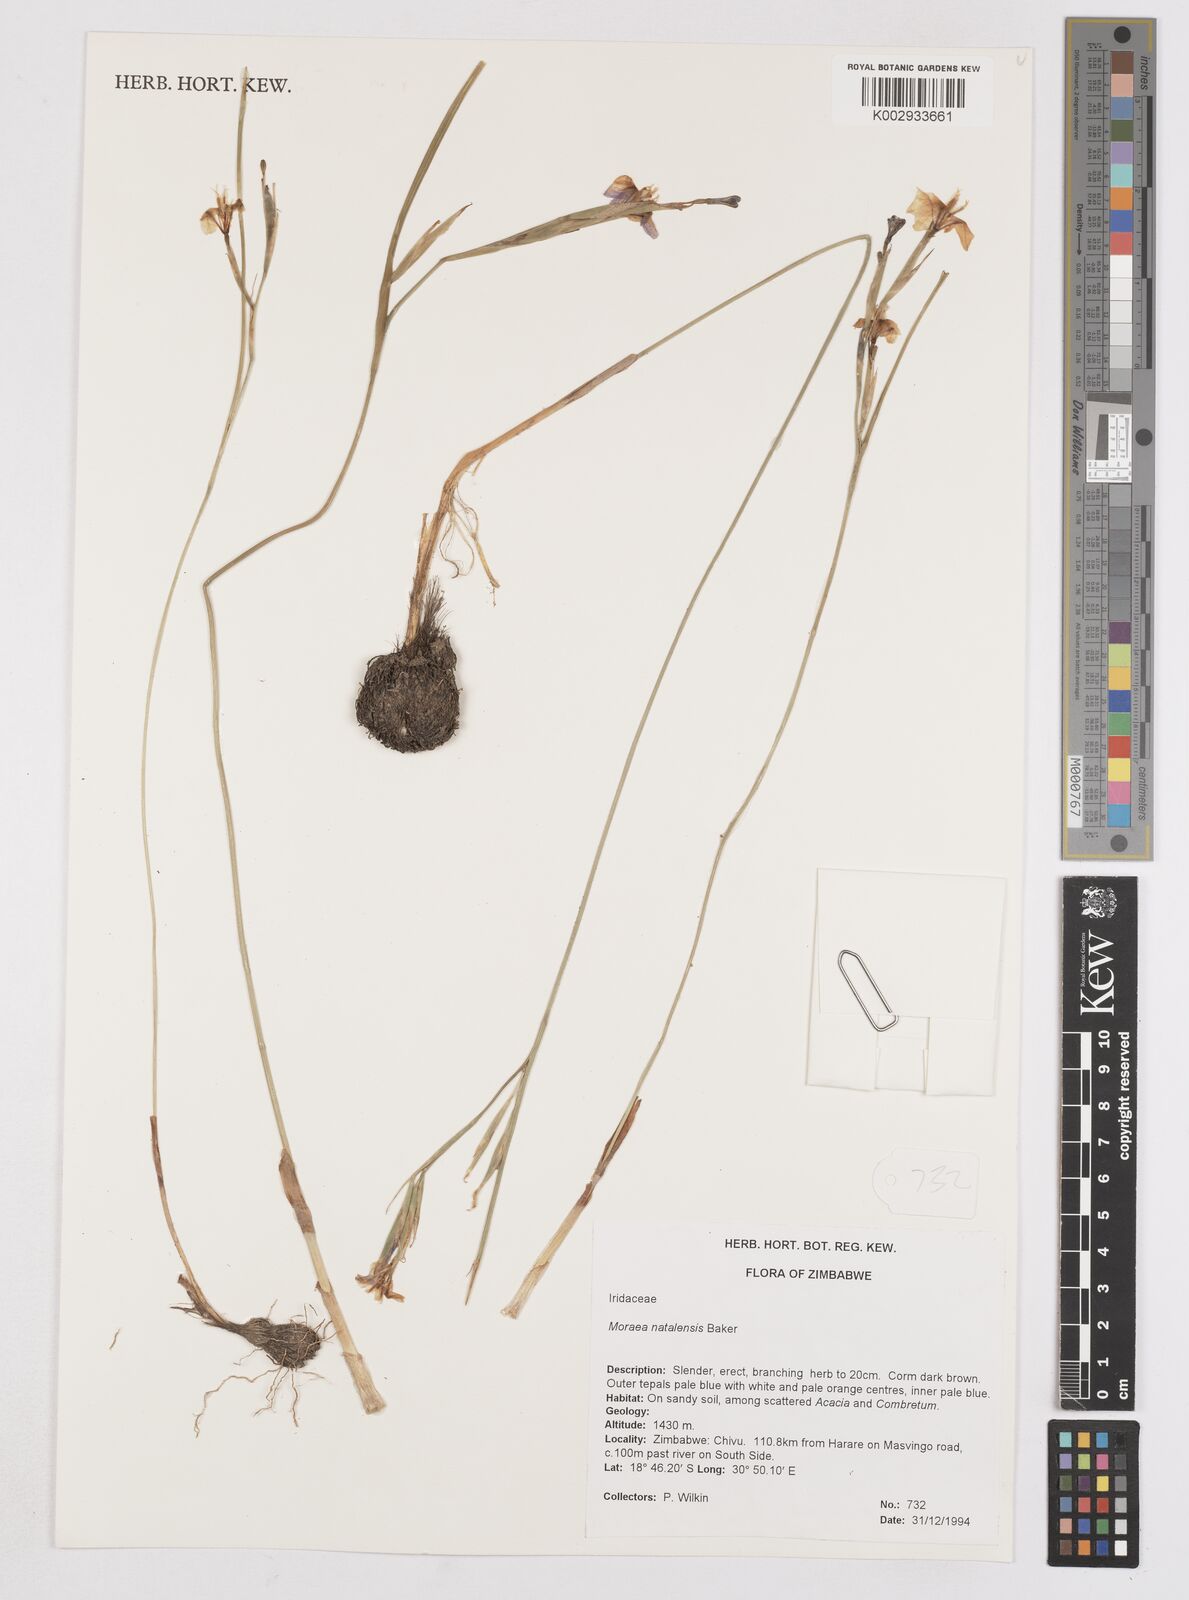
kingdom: Plantae
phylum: Tracheophyta
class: Liliopsida
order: Asparagales
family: Iridaceae
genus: Moraea
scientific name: Moraea natalensis
